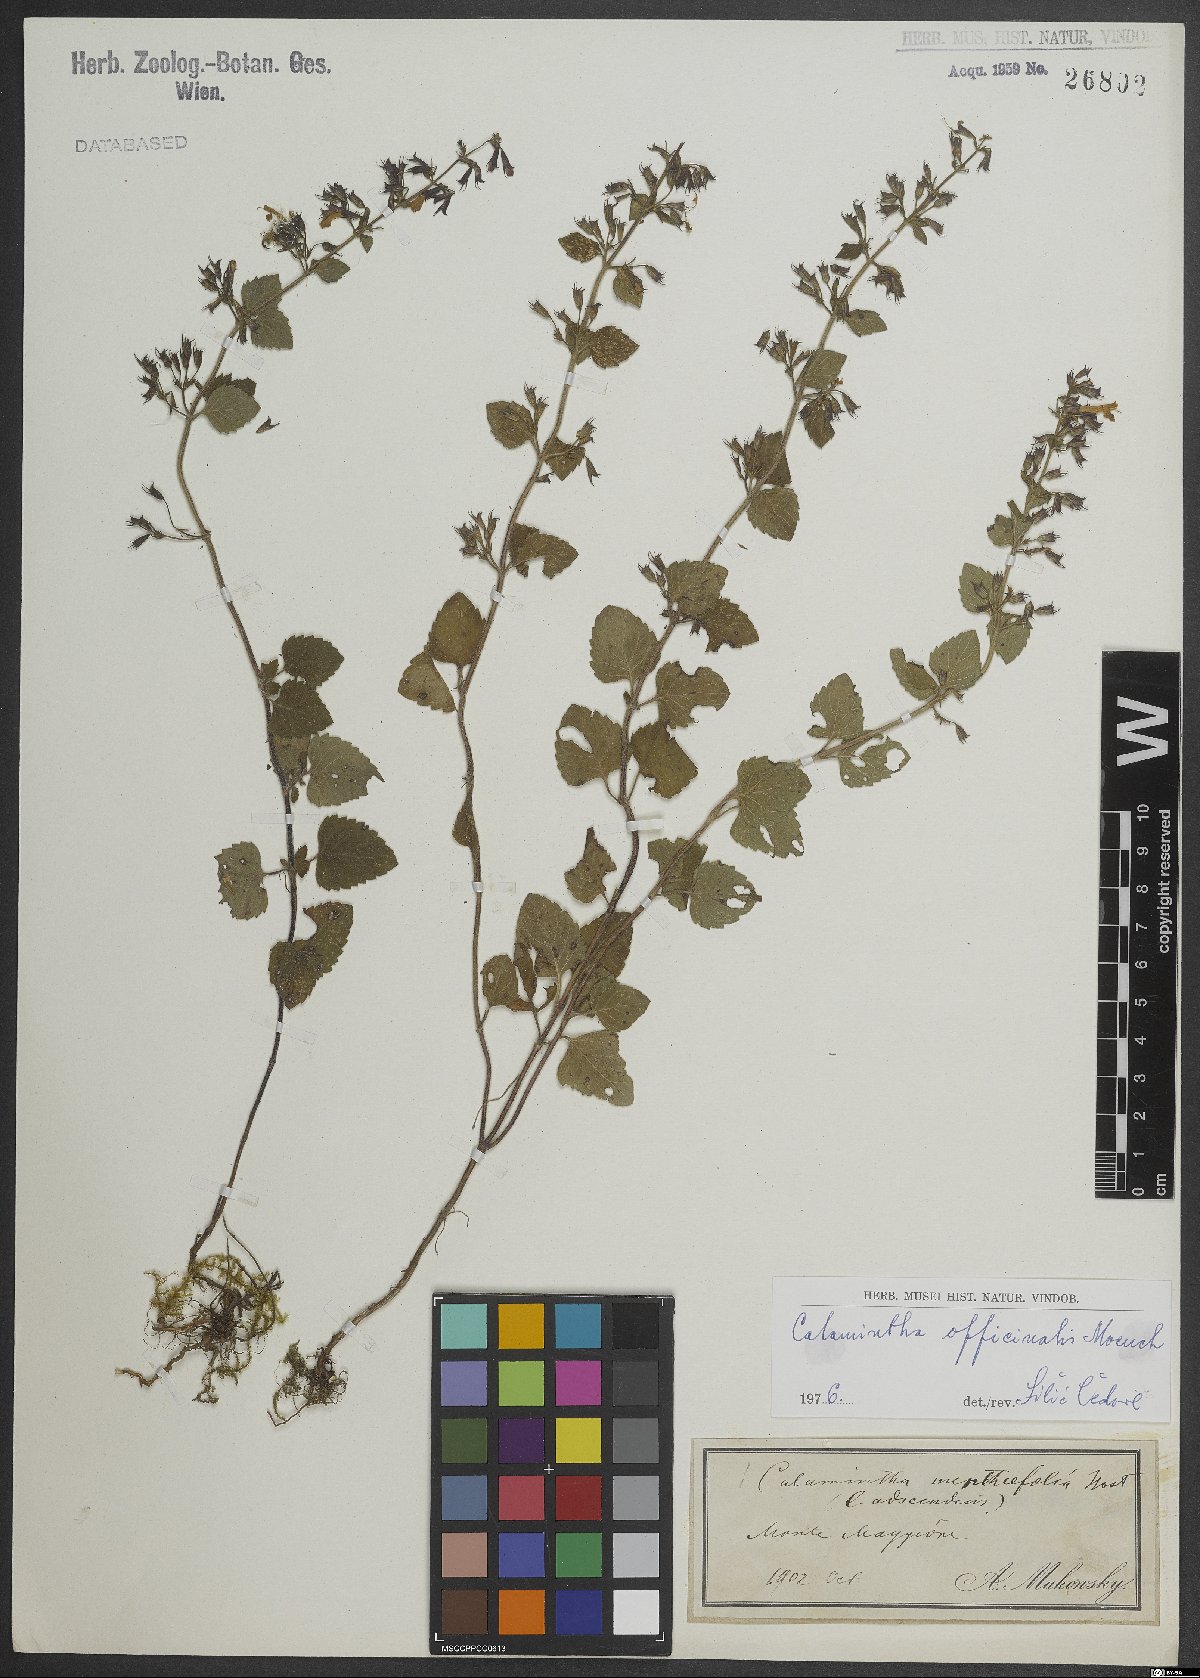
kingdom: Plantae
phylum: Tracheophyta
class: Magnoliopsida
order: Lamiales
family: Lamiaceae
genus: Clinopodium
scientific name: Clinopodium nepeta
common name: Lesser calamint
